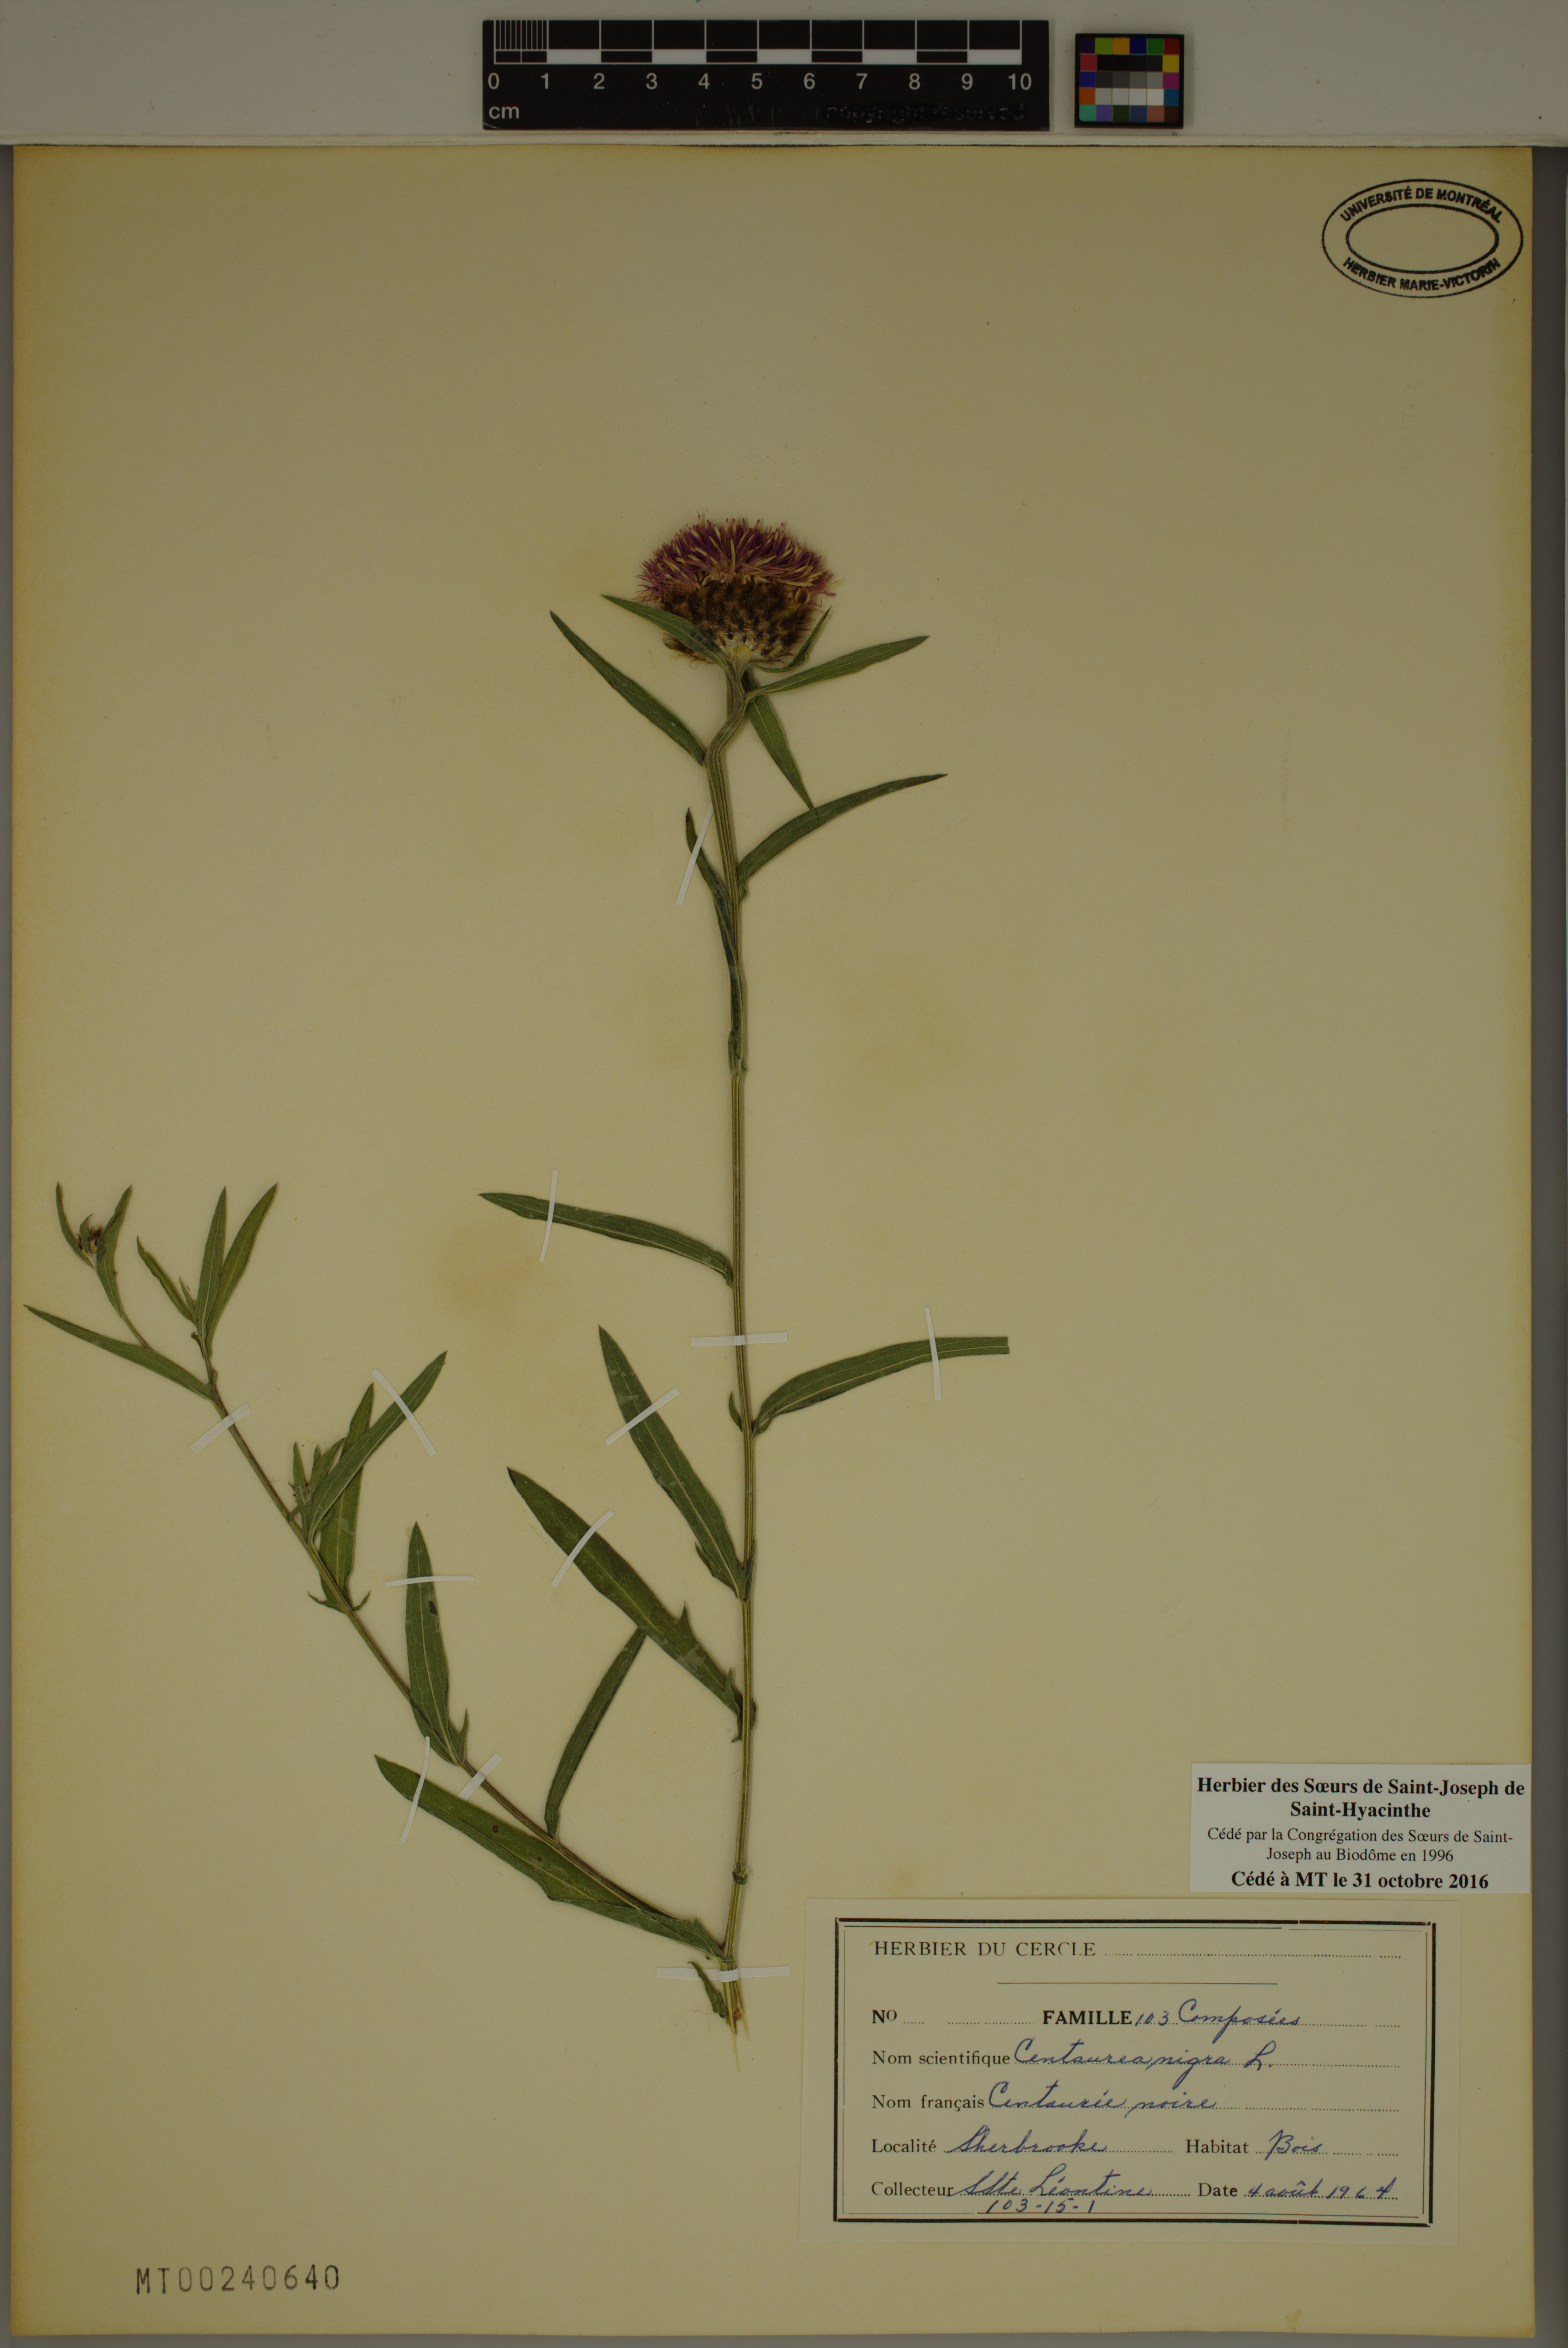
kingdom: Plantae
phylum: Tracheophyta
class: Magnoliopsida
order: Asterales
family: Asteraceae
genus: Centaurea
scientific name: Centaurea nigra
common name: Lesser knapweed
